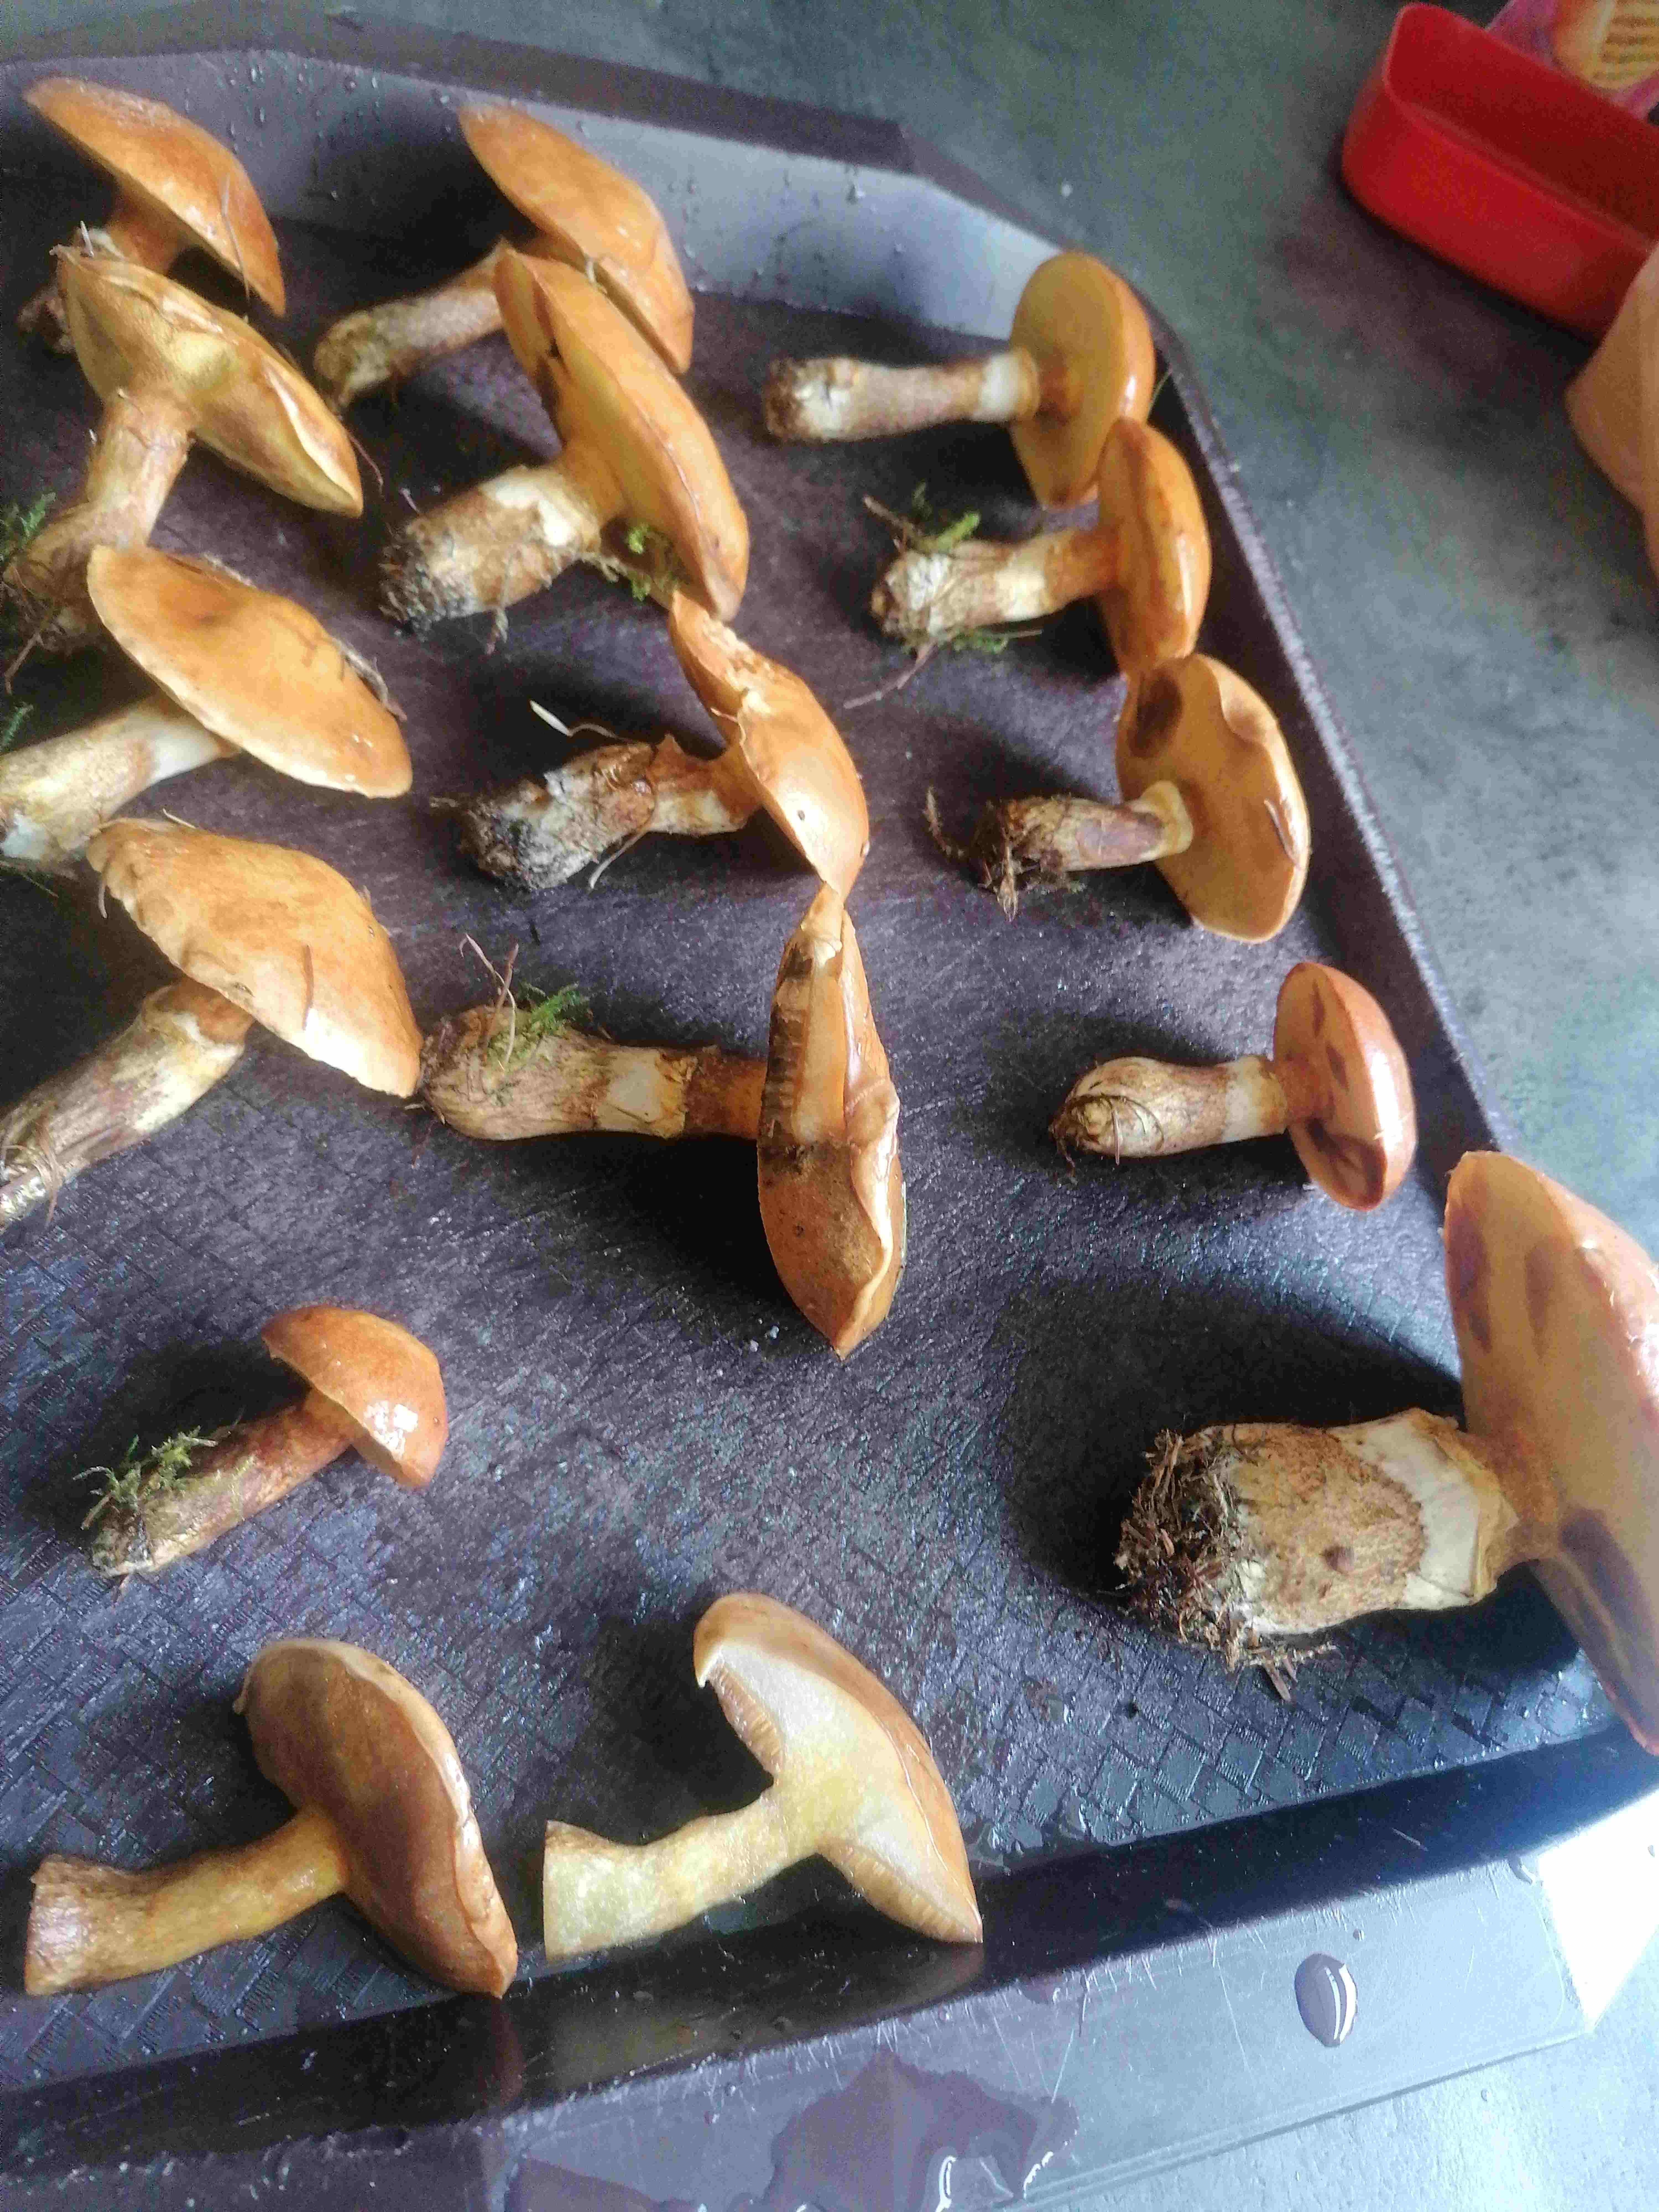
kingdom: Fungi
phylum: Basidiomycota
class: Agaricomycetes
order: Boletales
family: Suillaceae
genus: Suillus
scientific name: Suillus luteus
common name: brungul slimrørhat
